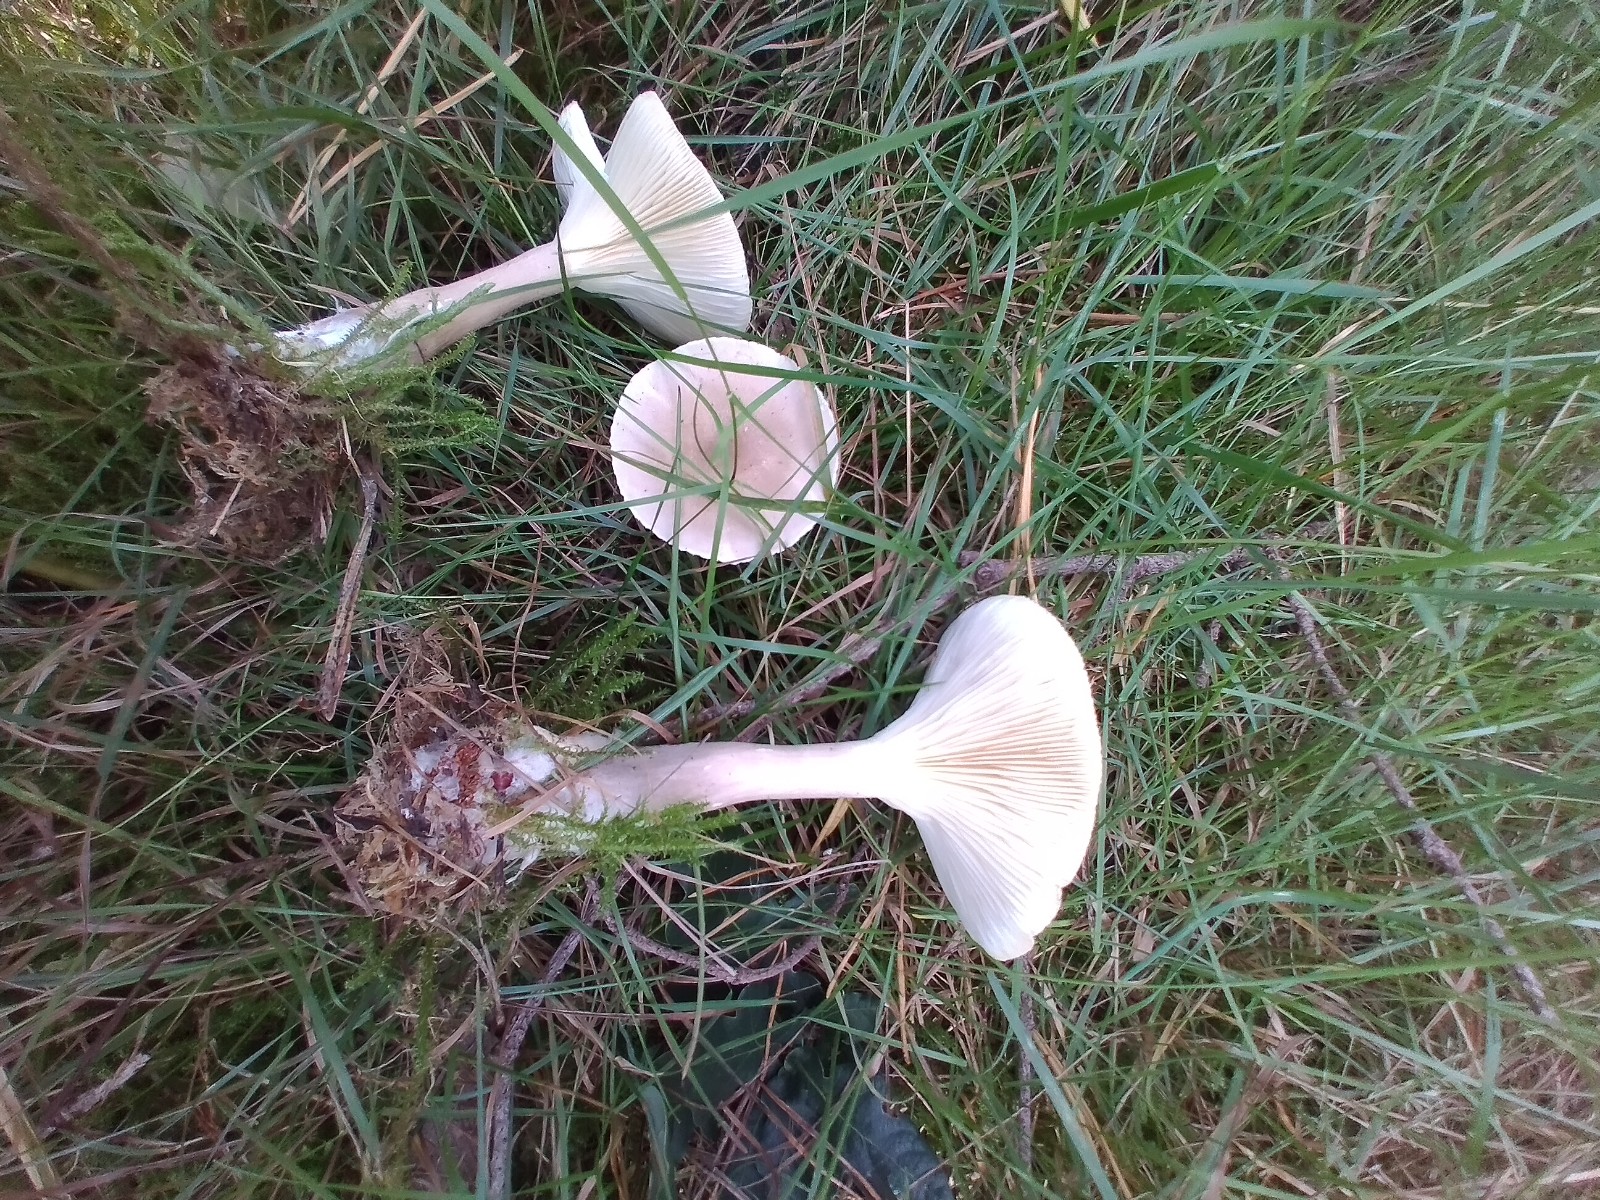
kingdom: Fungi
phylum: Basidiomycota
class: Agaricomycetes
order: Agaricales
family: Hygrophoraceae
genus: Ampulloclitocybe
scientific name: Ampulloclitocybe clavipes
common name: køllefod
